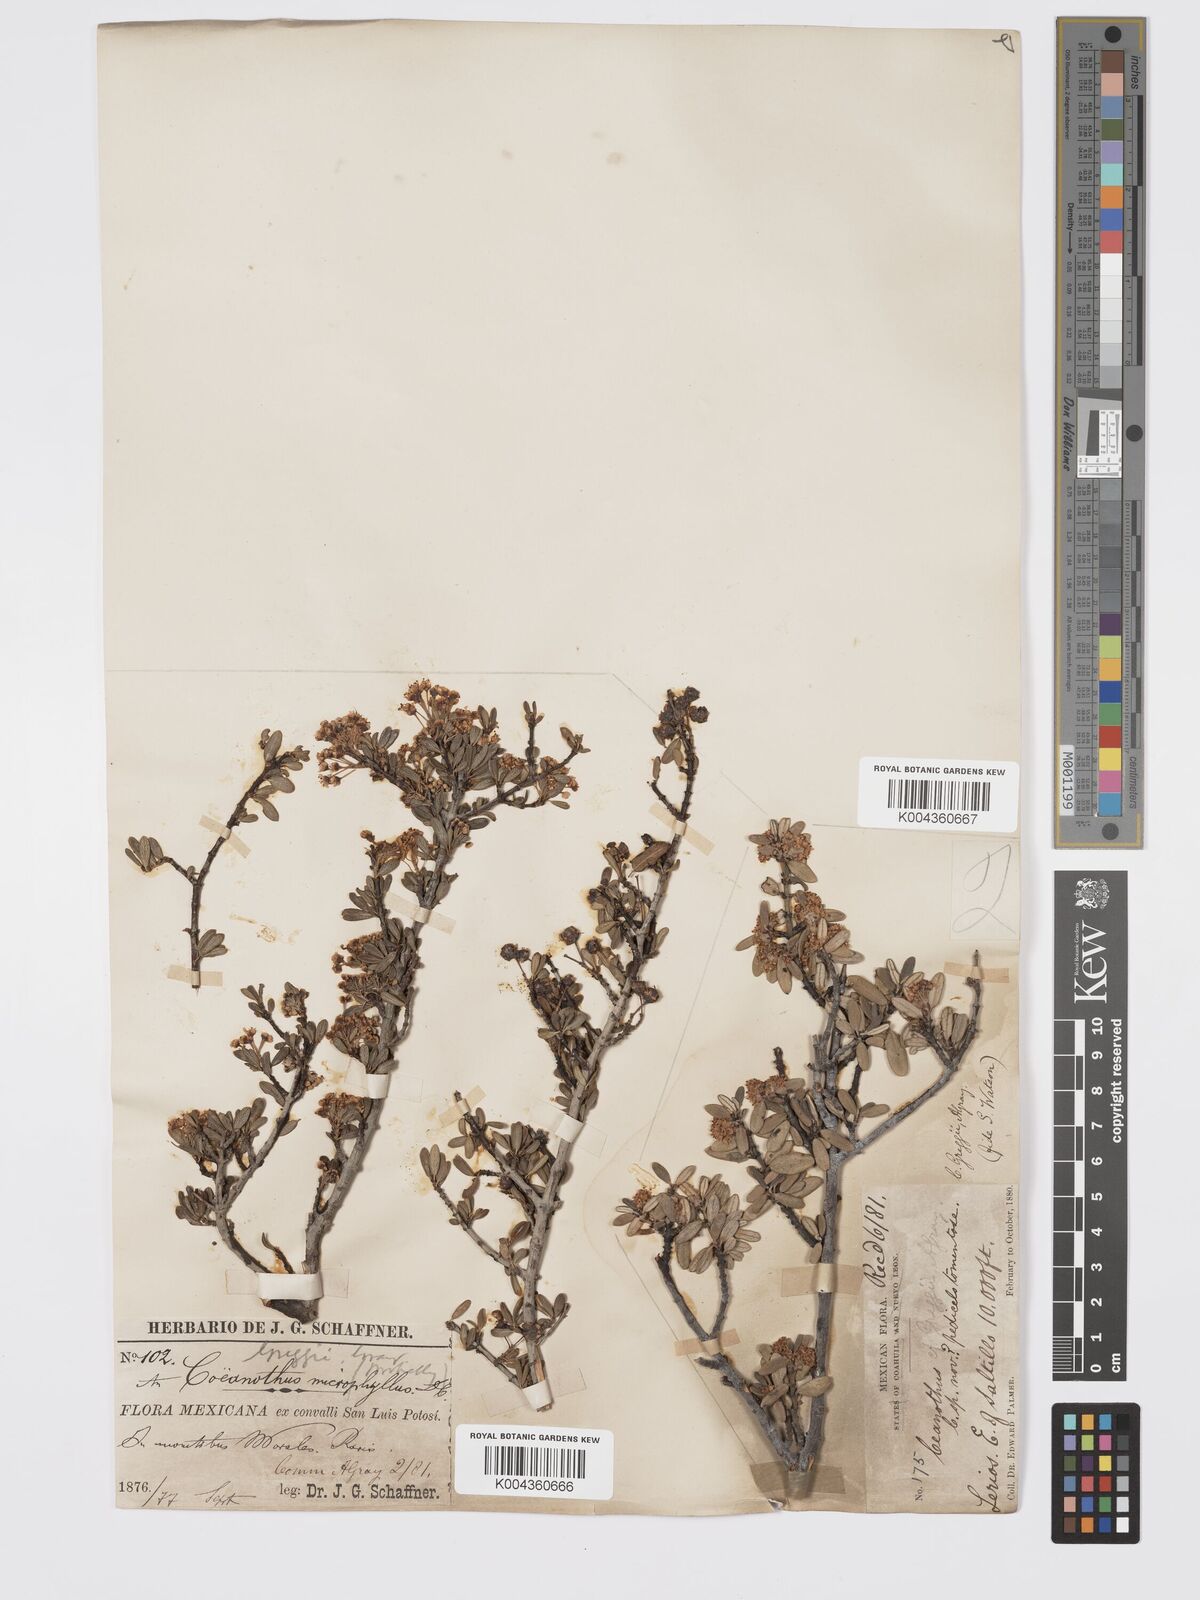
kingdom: Plantae
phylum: Tracheophyta
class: Magnoliopsida
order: Rosales
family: Rhamnaceae
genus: Ceanothus
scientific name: Ceanothus pauciflorus
